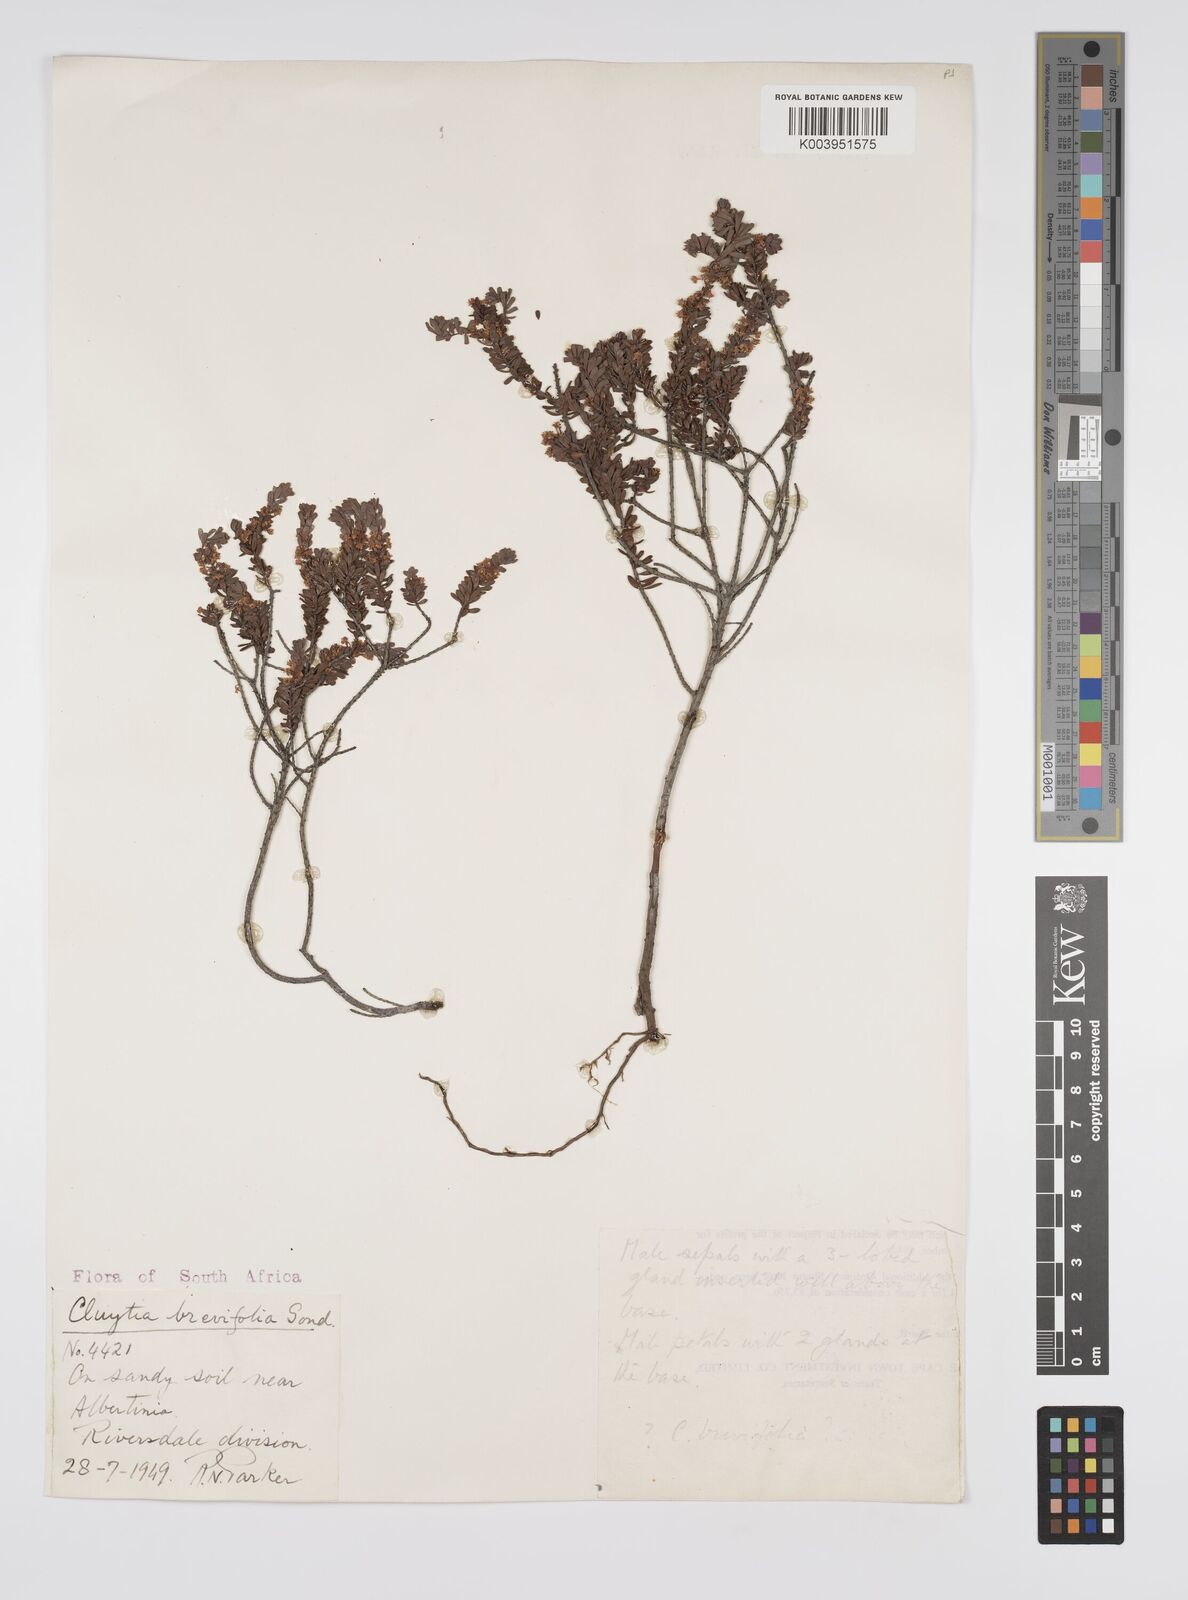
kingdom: Plantae
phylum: Tracheophyta
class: Magnoliopsida
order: Malpighiales
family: Peraceae
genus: Clutia
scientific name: Clutia brevifolia
